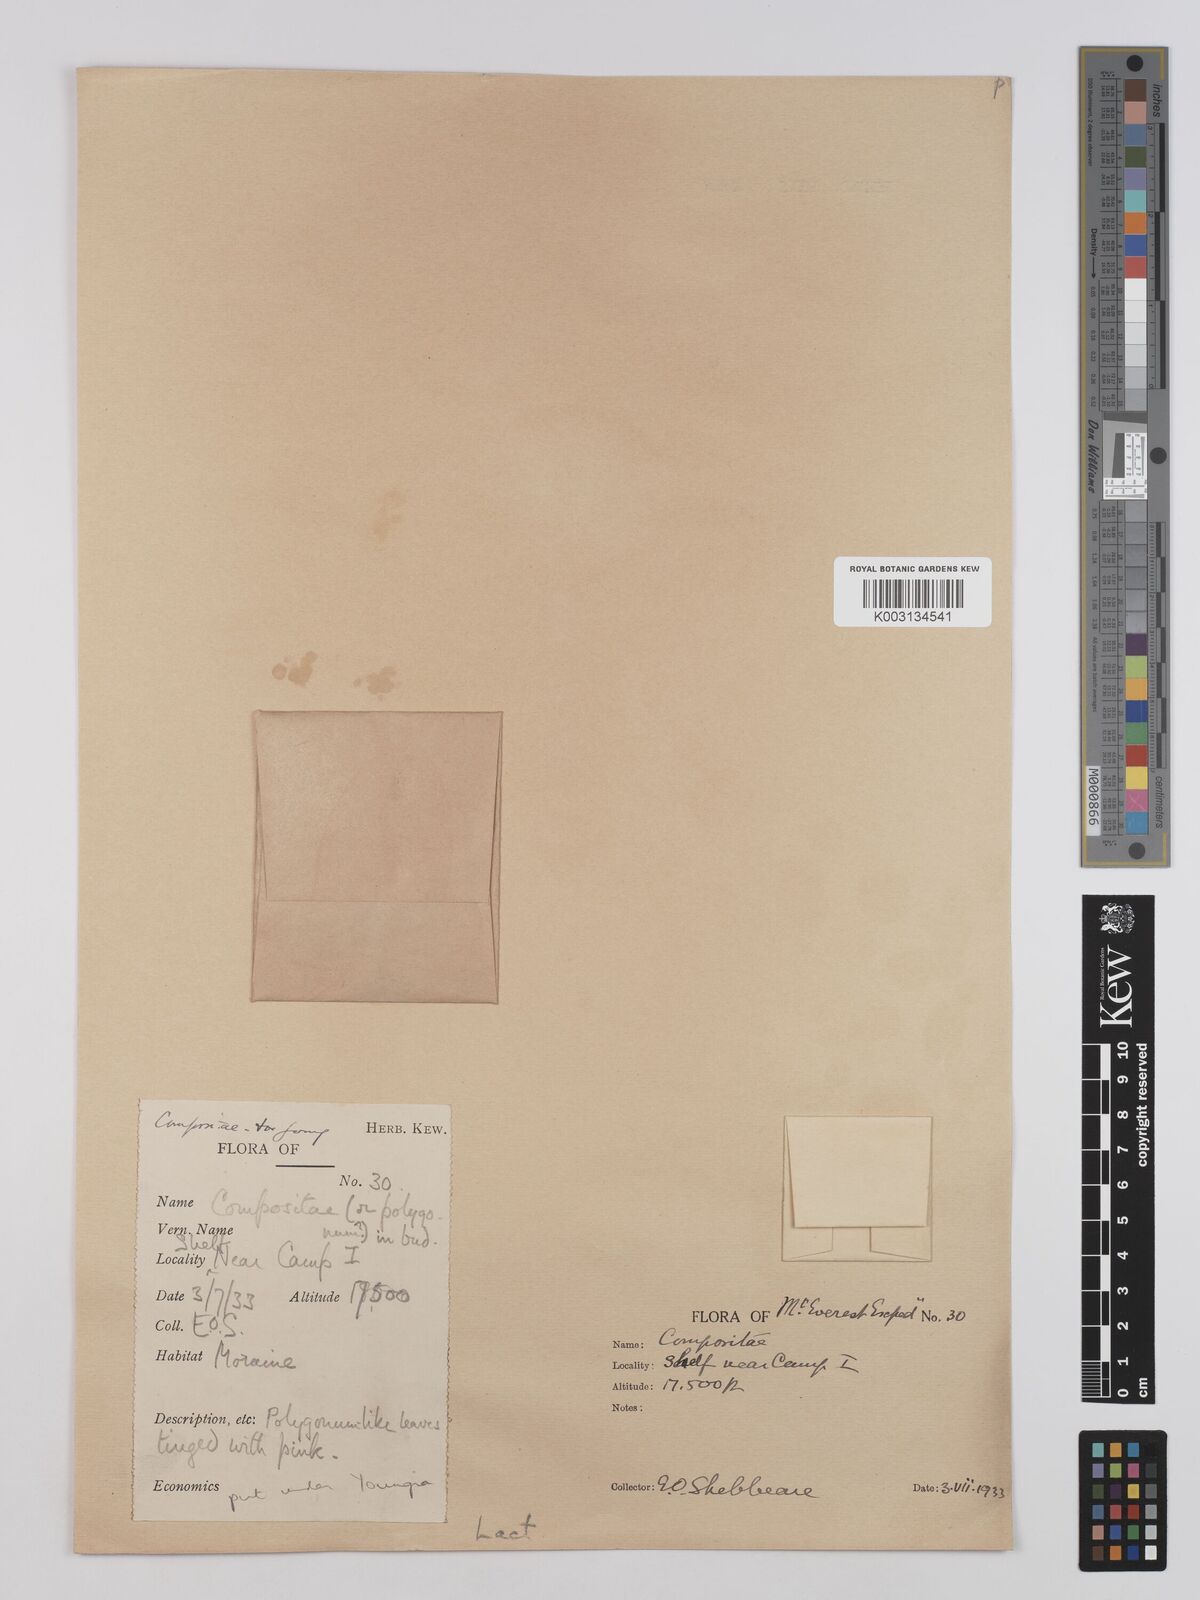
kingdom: Plantae
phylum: Tracheophyta
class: Magnoliopsida
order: Asterales
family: Asteraceae
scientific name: Asteraceae
